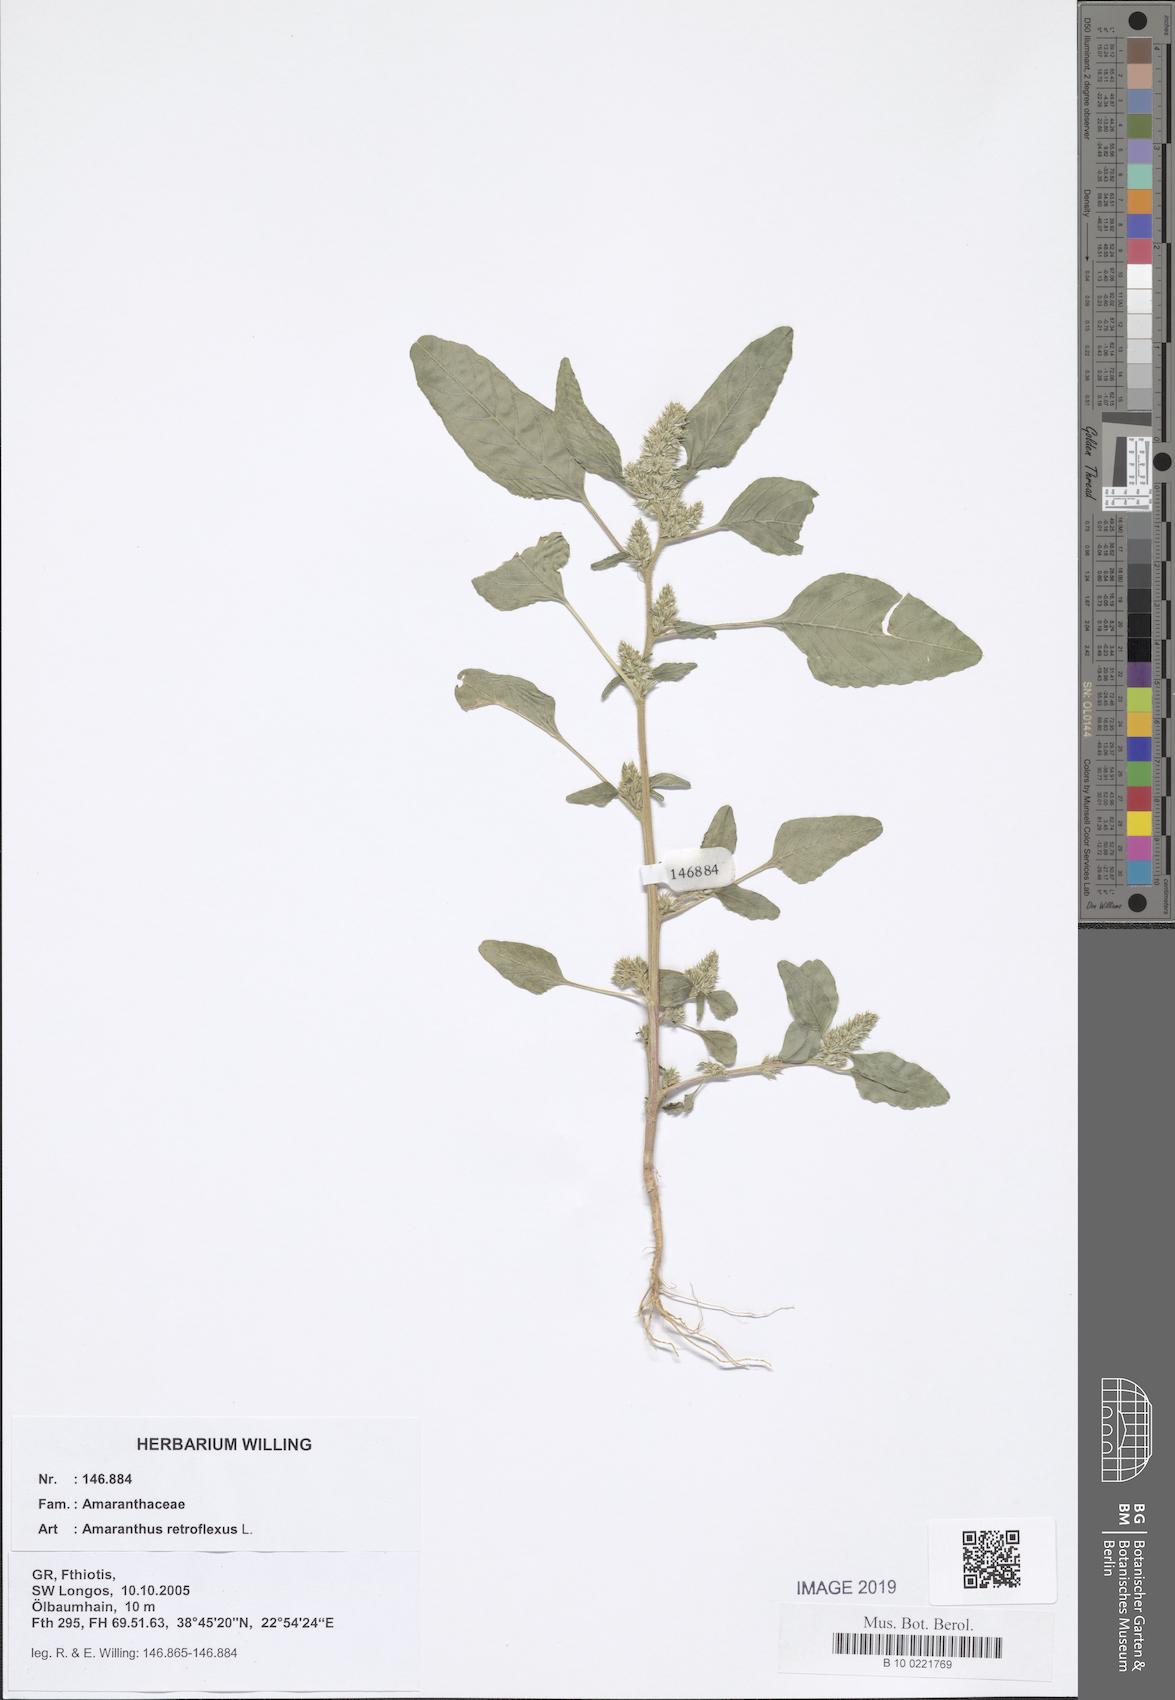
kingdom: Plantae
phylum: Tracheophyta
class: Magnoliopsida
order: Caryophyllales
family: Amaranthaceae
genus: Amaranthus
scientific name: Amaranthus retroflexus
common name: Redroot amaranth
